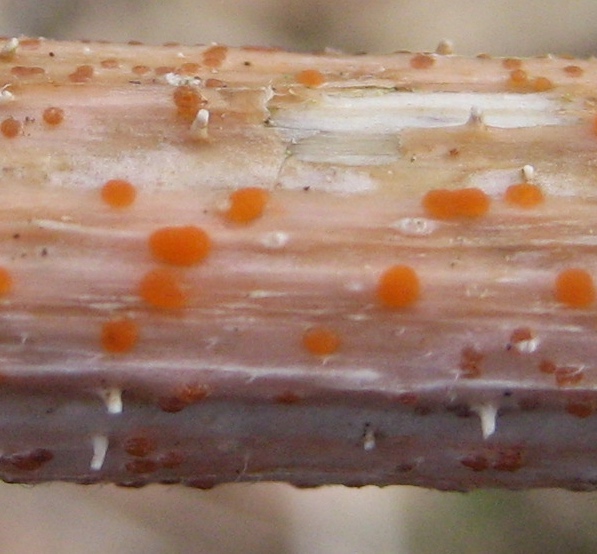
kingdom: Fungi
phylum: Ascomycota
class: Leotiomycetes
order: Helotiales
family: Calloriaceae
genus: Calloria
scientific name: Calloria urticae
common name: nælde-orangeskive
